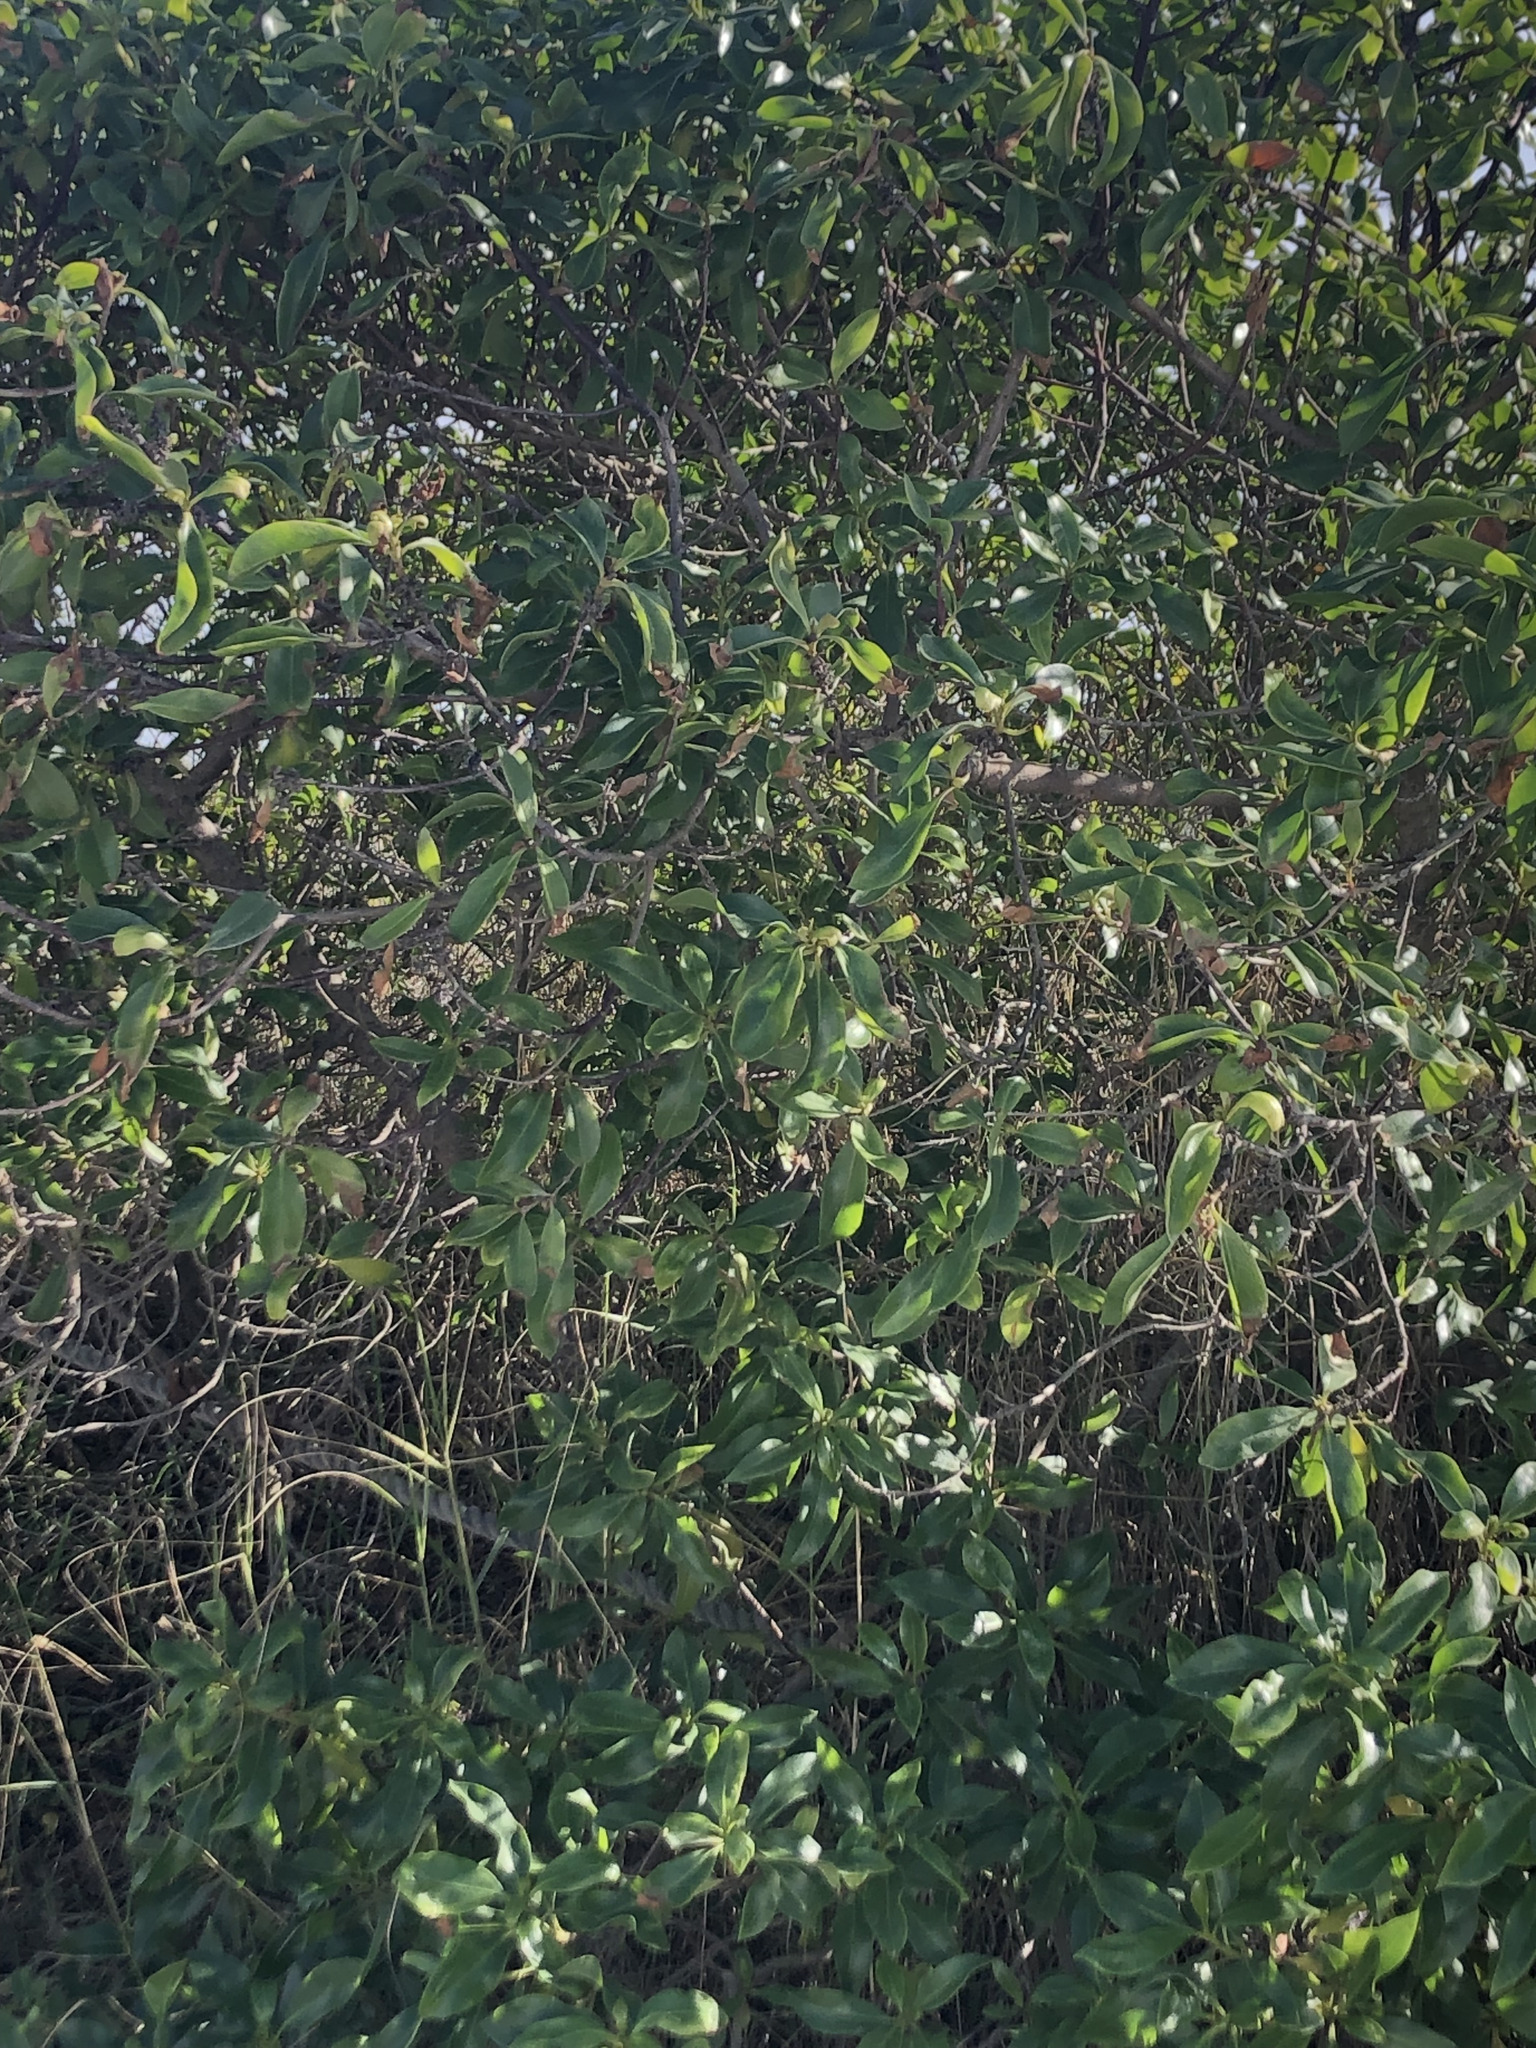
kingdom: Plantae
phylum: Tracheophyta
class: Magnoliopsida
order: Lamiales
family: Scrophulariaceae
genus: Myoporum
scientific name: Myoporum laetum
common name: Ngaio tree
